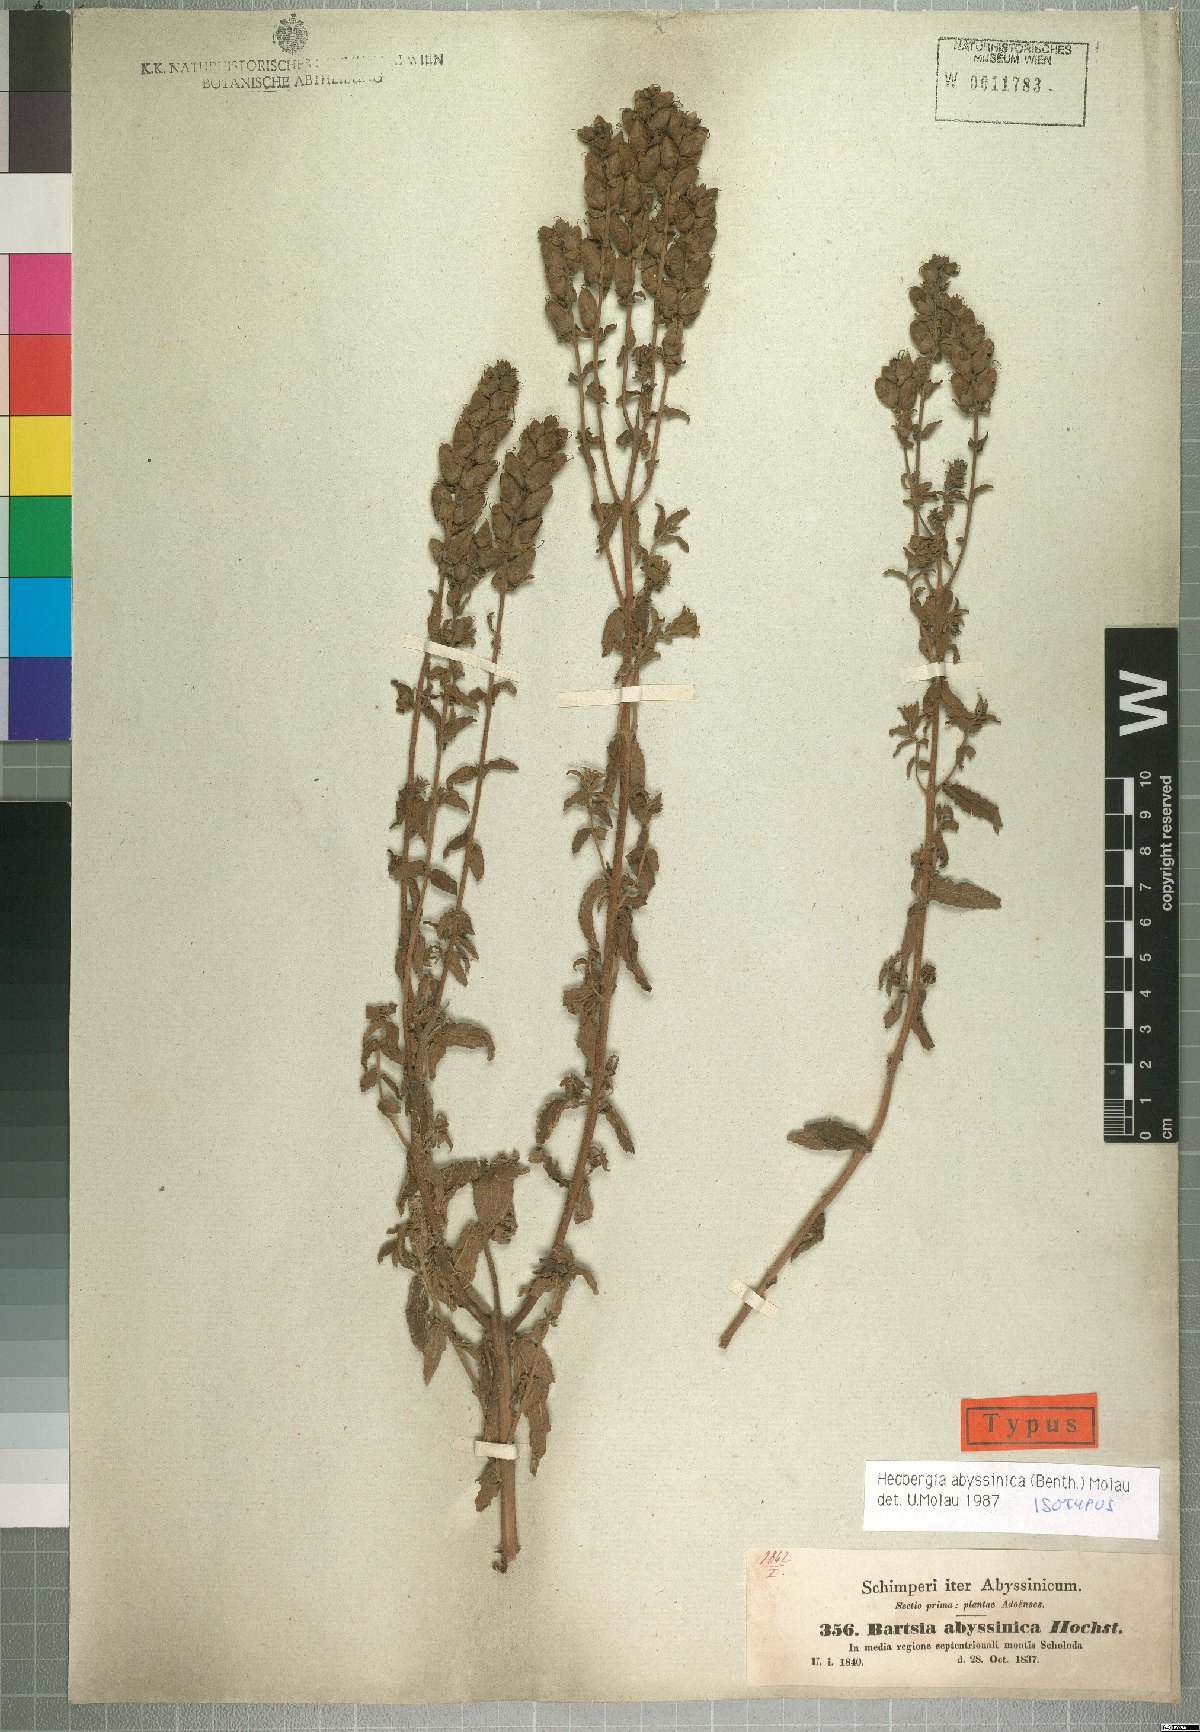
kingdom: Plantae
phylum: Tracheophyta
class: Magnoliopsida
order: Lamiales
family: Orobanchaceae
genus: Hedbergia
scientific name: Hedbergia abyssinica
